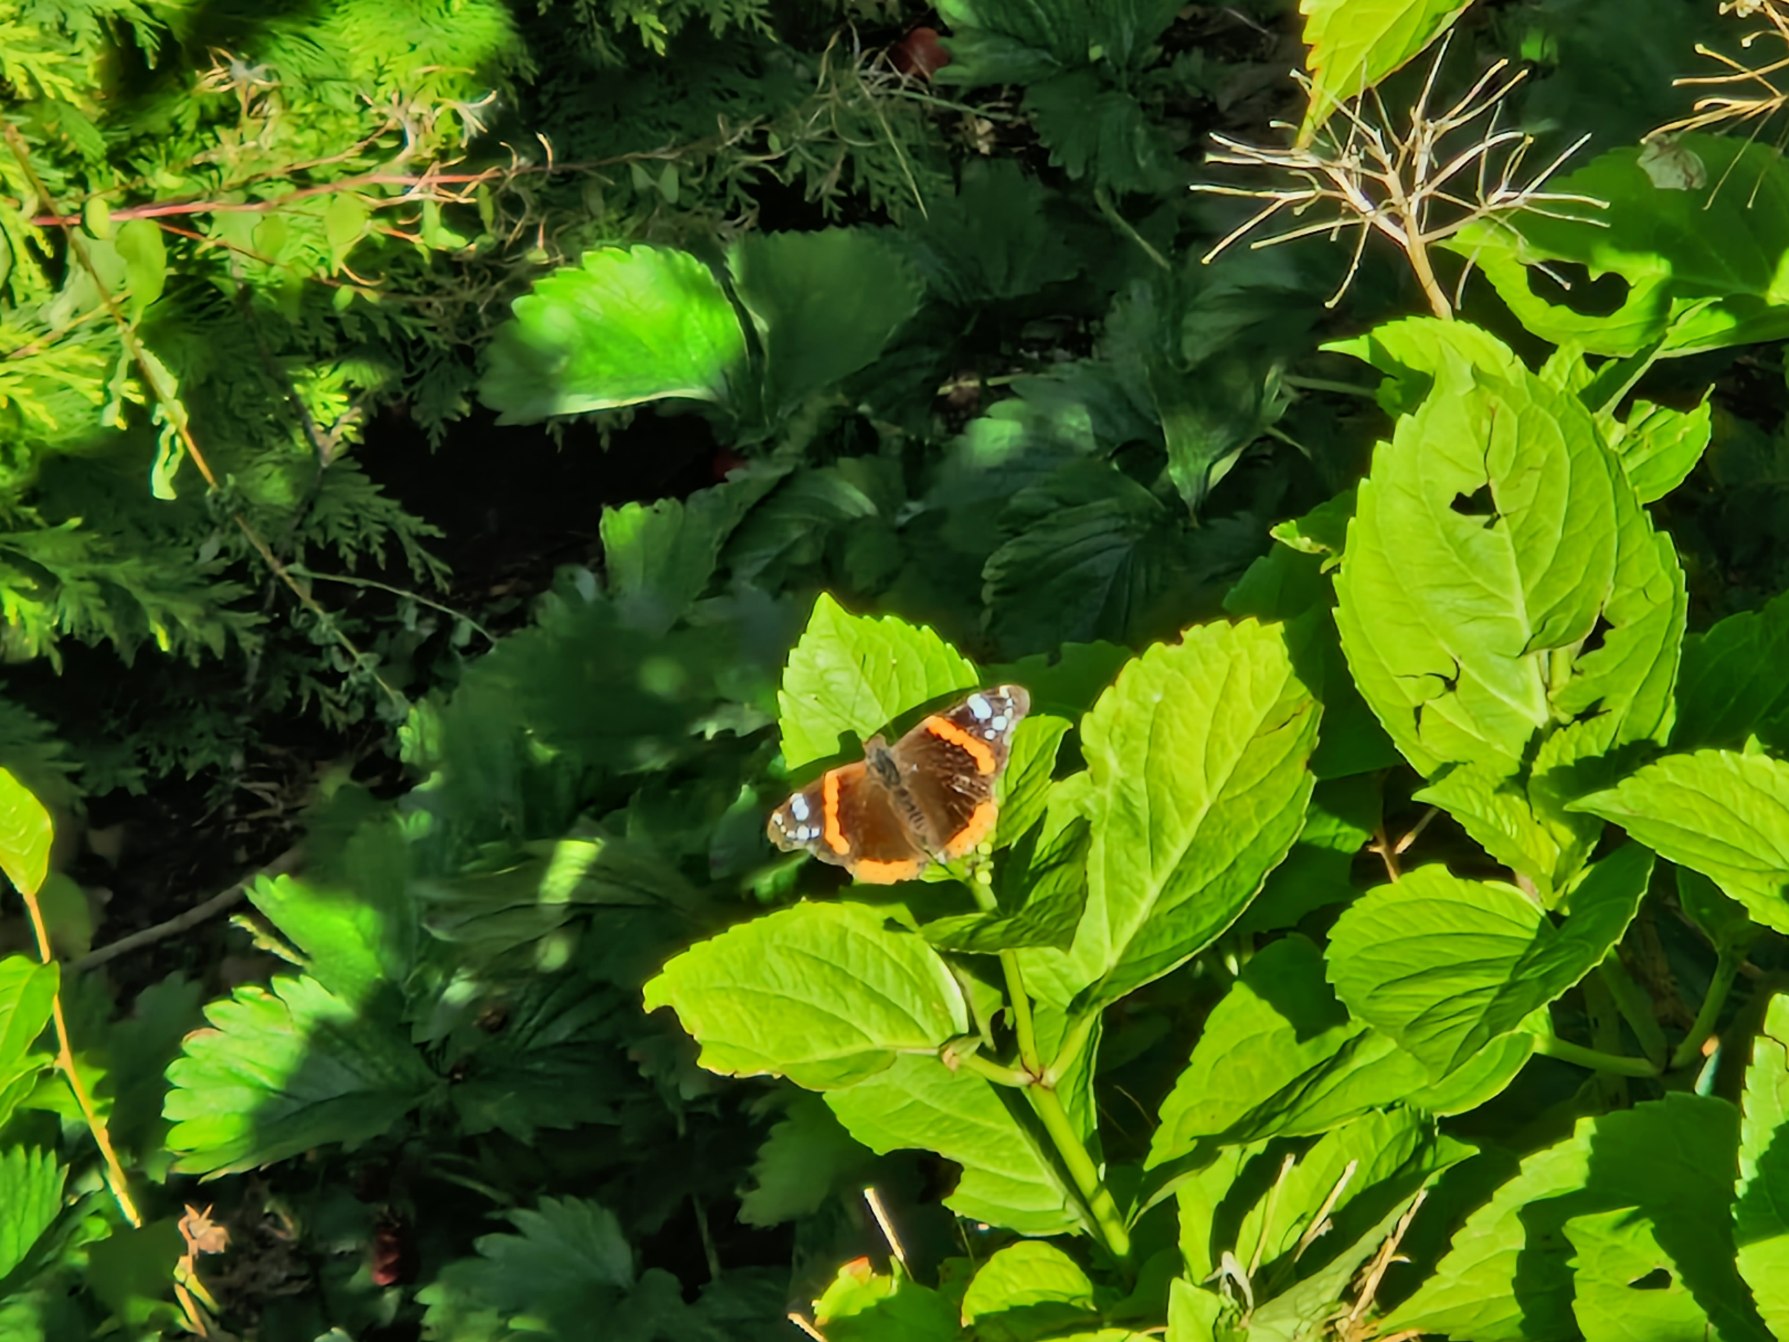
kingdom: Animalia
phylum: Arthropoda
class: Insecta
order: Lepidoptera
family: Nymphalidae
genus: Vanessa
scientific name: Vanessa atalanta
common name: Admiral
